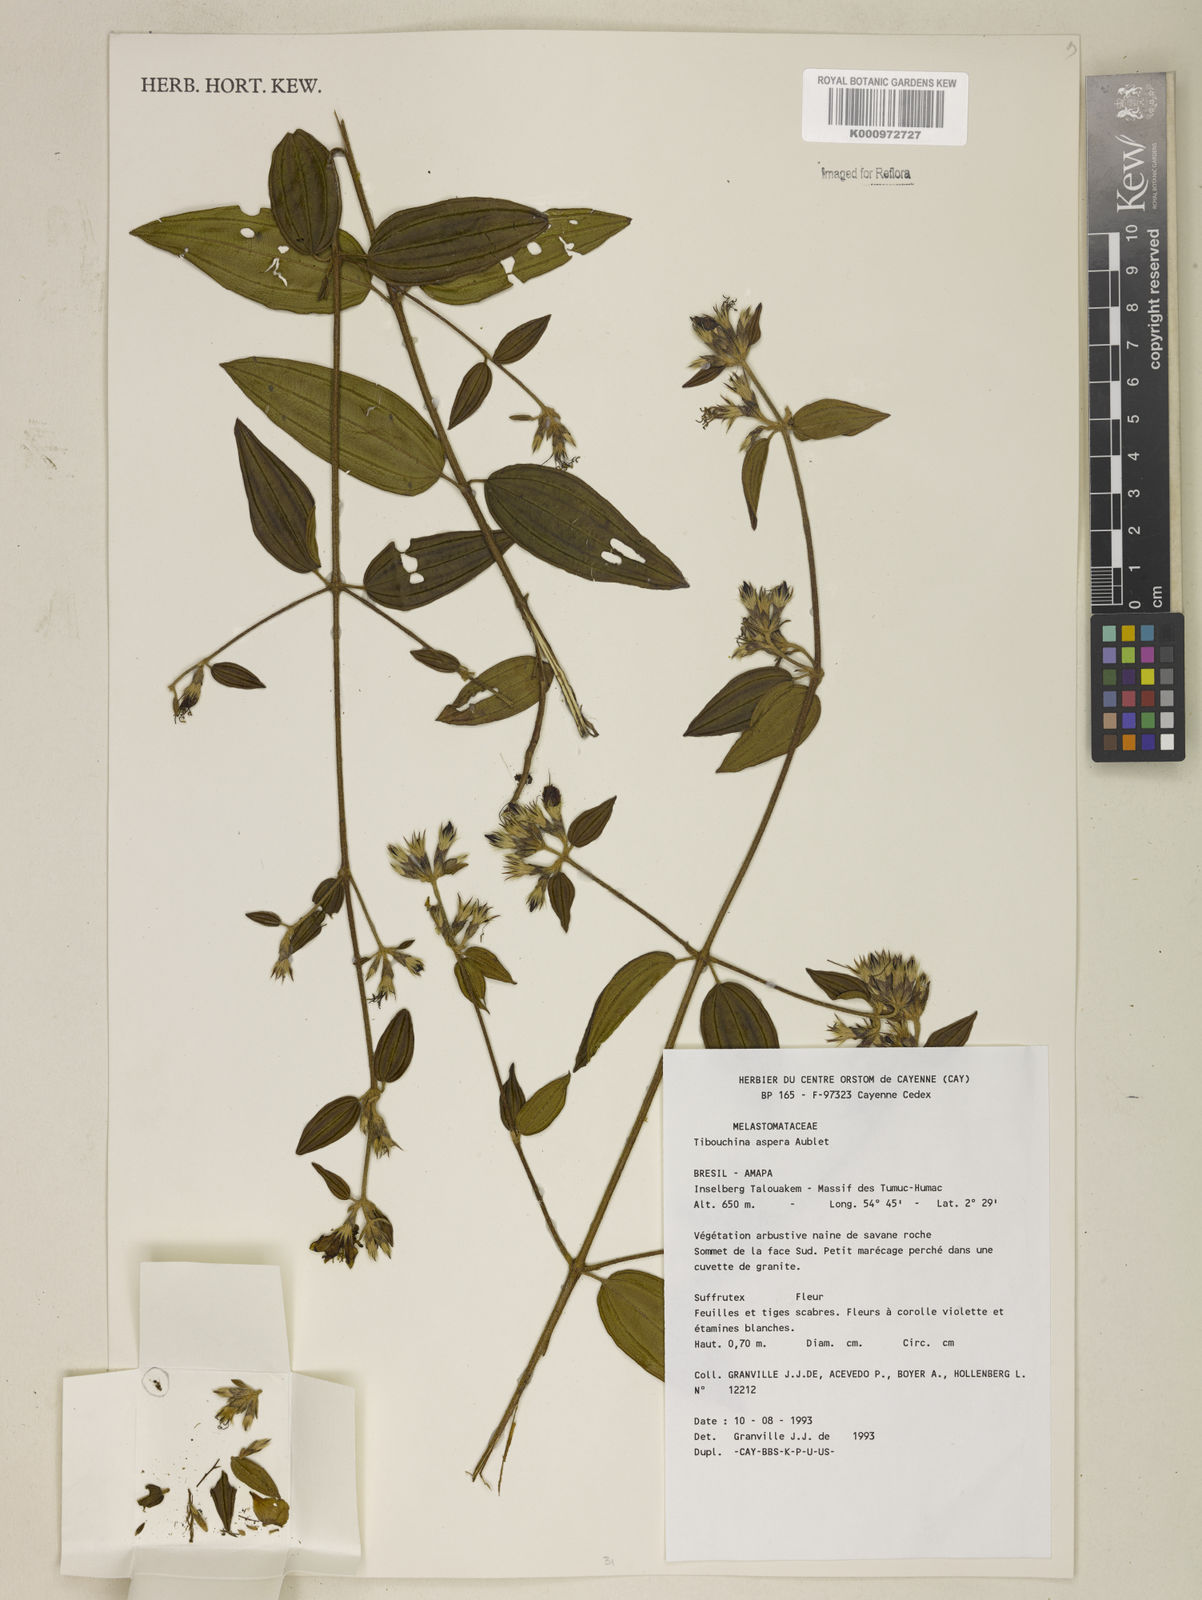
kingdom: Plantae
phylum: Tracheophyta
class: Magnoliopsida
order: Myrtales
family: Melastomataceae
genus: Tibouchina
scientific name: Tibouchina aspera
